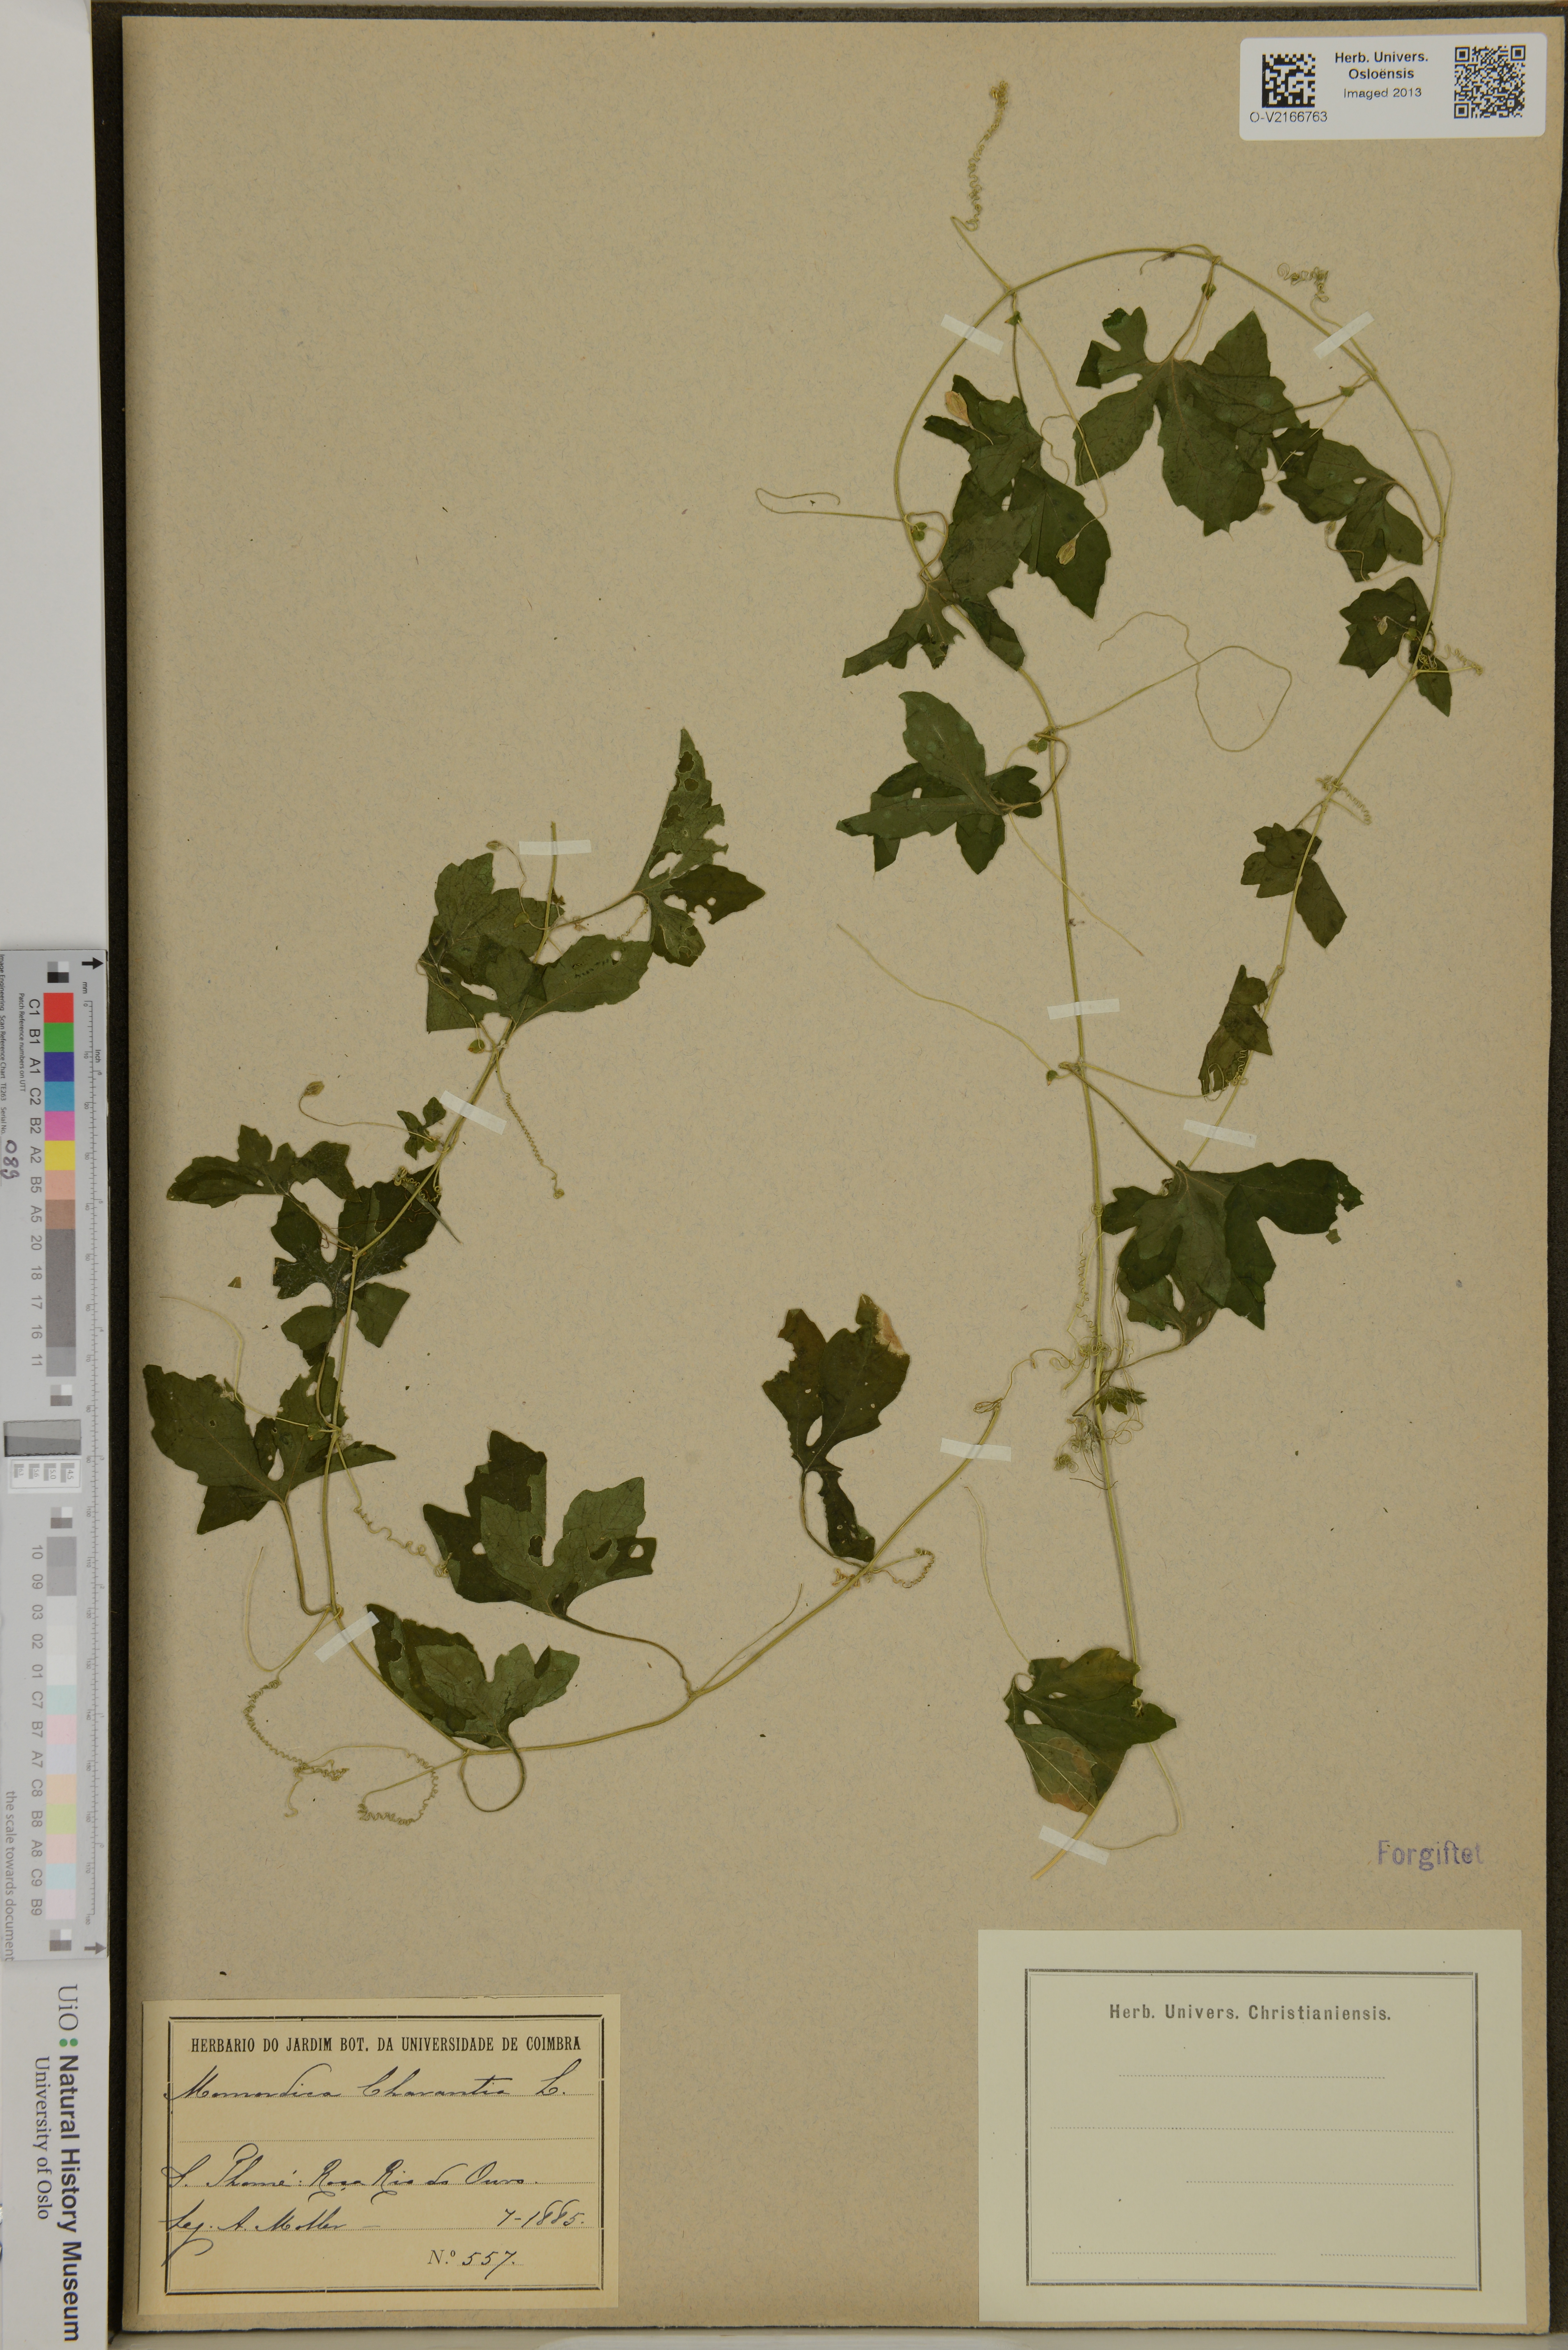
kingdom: Plantae
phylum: Tracheophyta
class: Magnoliopsida
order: Cucurbitales
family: Cucurbitaceae
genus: Momordica
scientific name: Momordica charantia
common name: Balsampear
